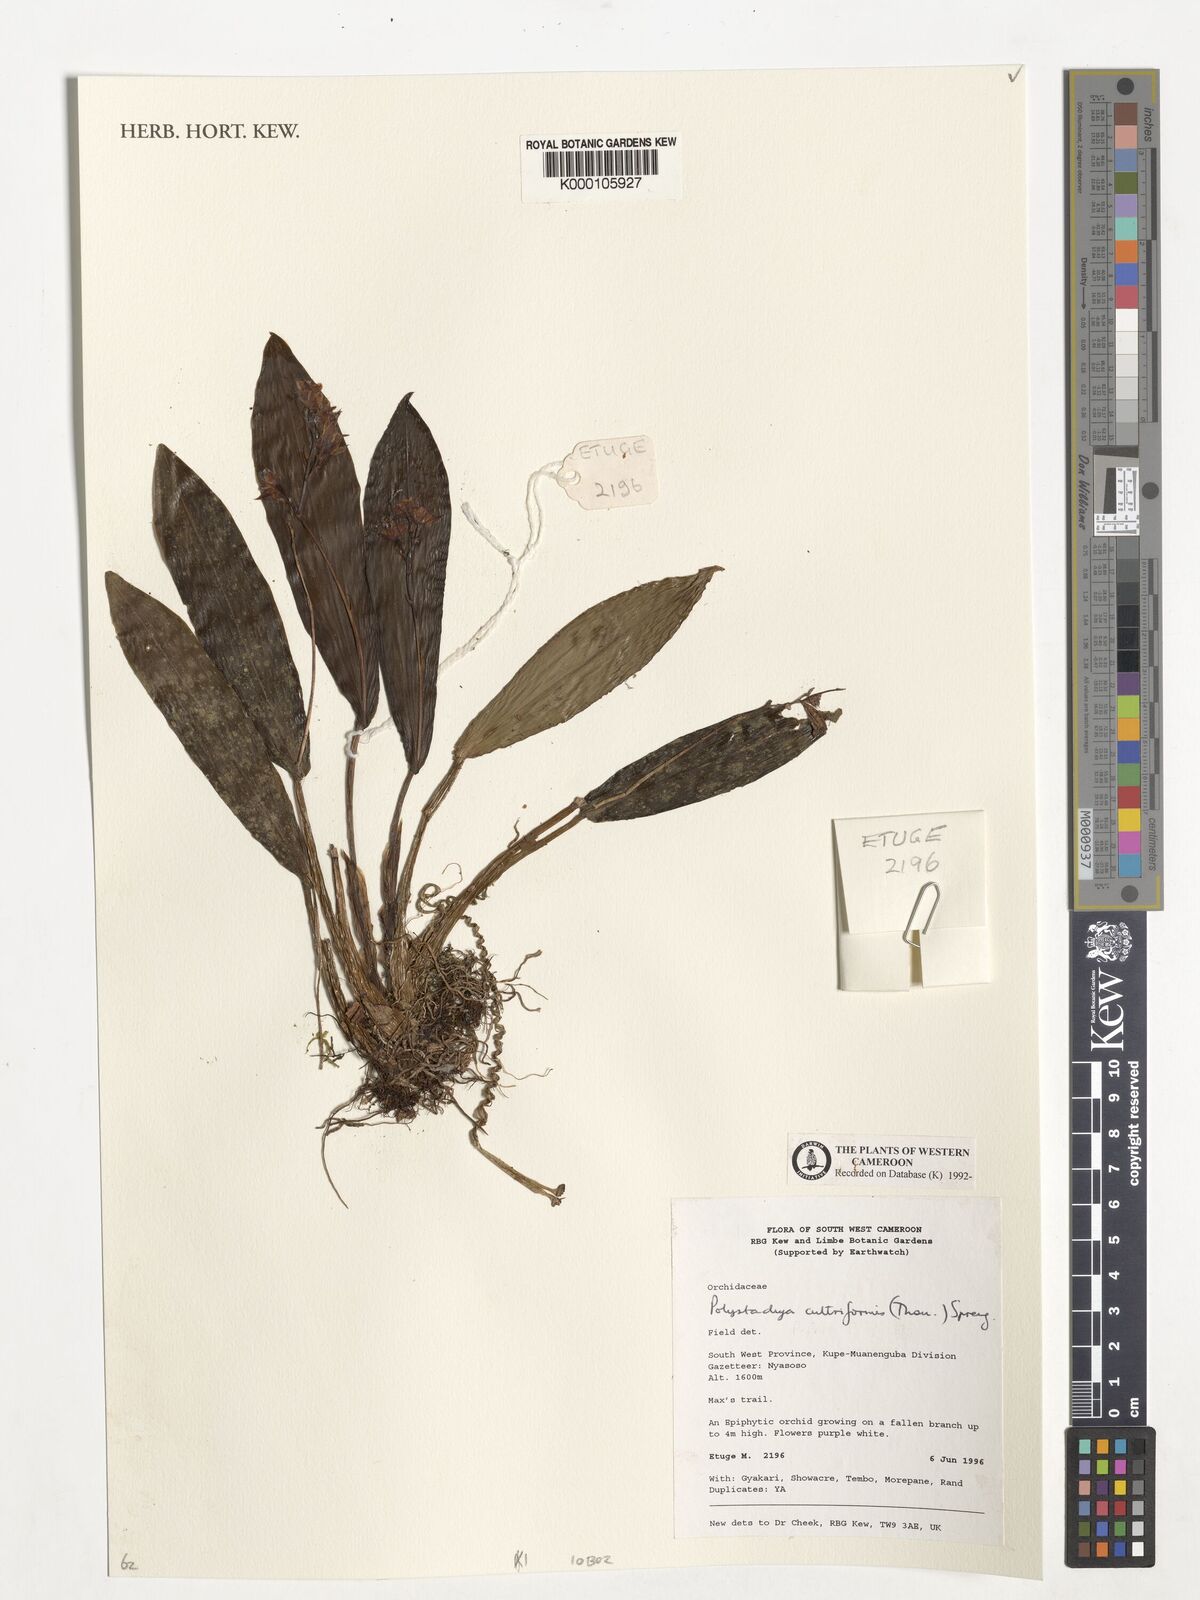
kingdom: Plantae
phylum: Tracheophyta
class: Liliopsida
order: Asparagales
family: Orchidaceae
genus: Polystachya
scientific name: Polystachya cultriformis
